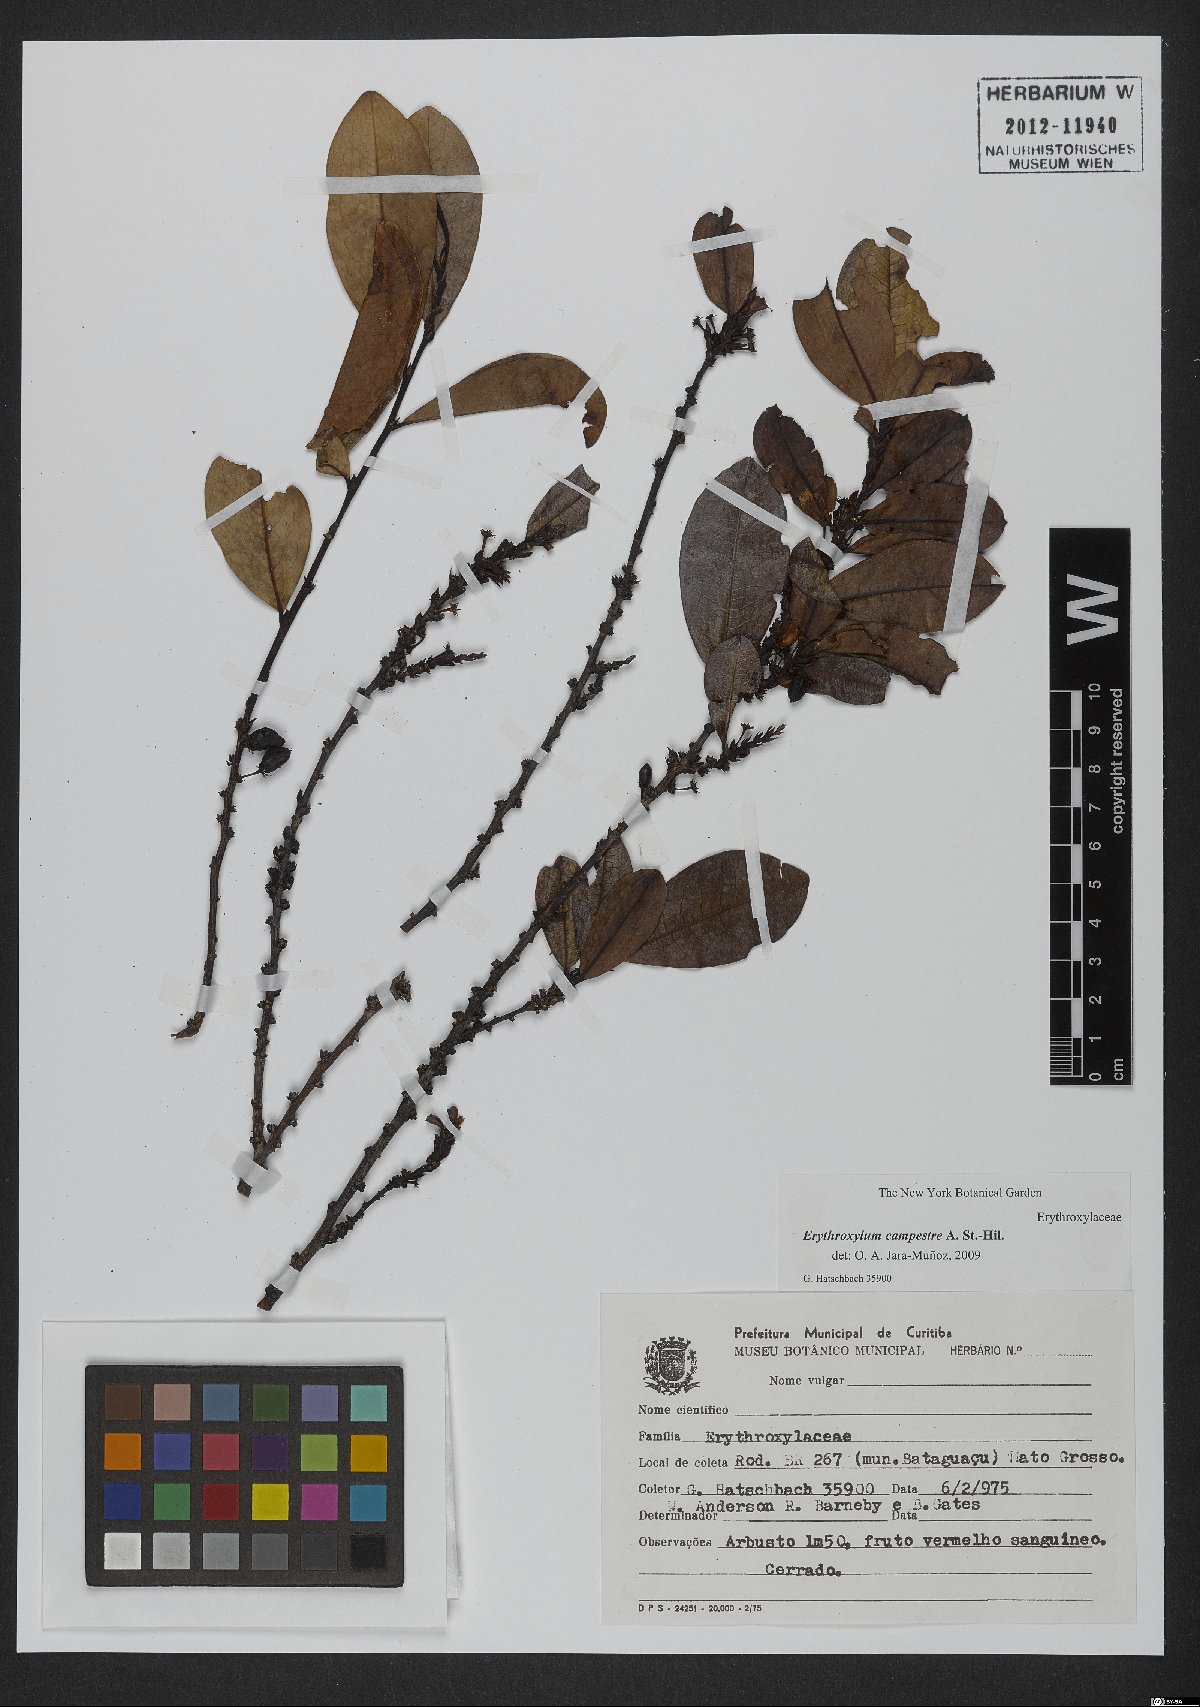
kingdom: Plantae
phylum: Tracheophyta
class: Magnoliopsida
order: Malpighiales
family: Erythroxylaceae
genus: Erythroxylum
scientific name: Erythroxylum campestre
